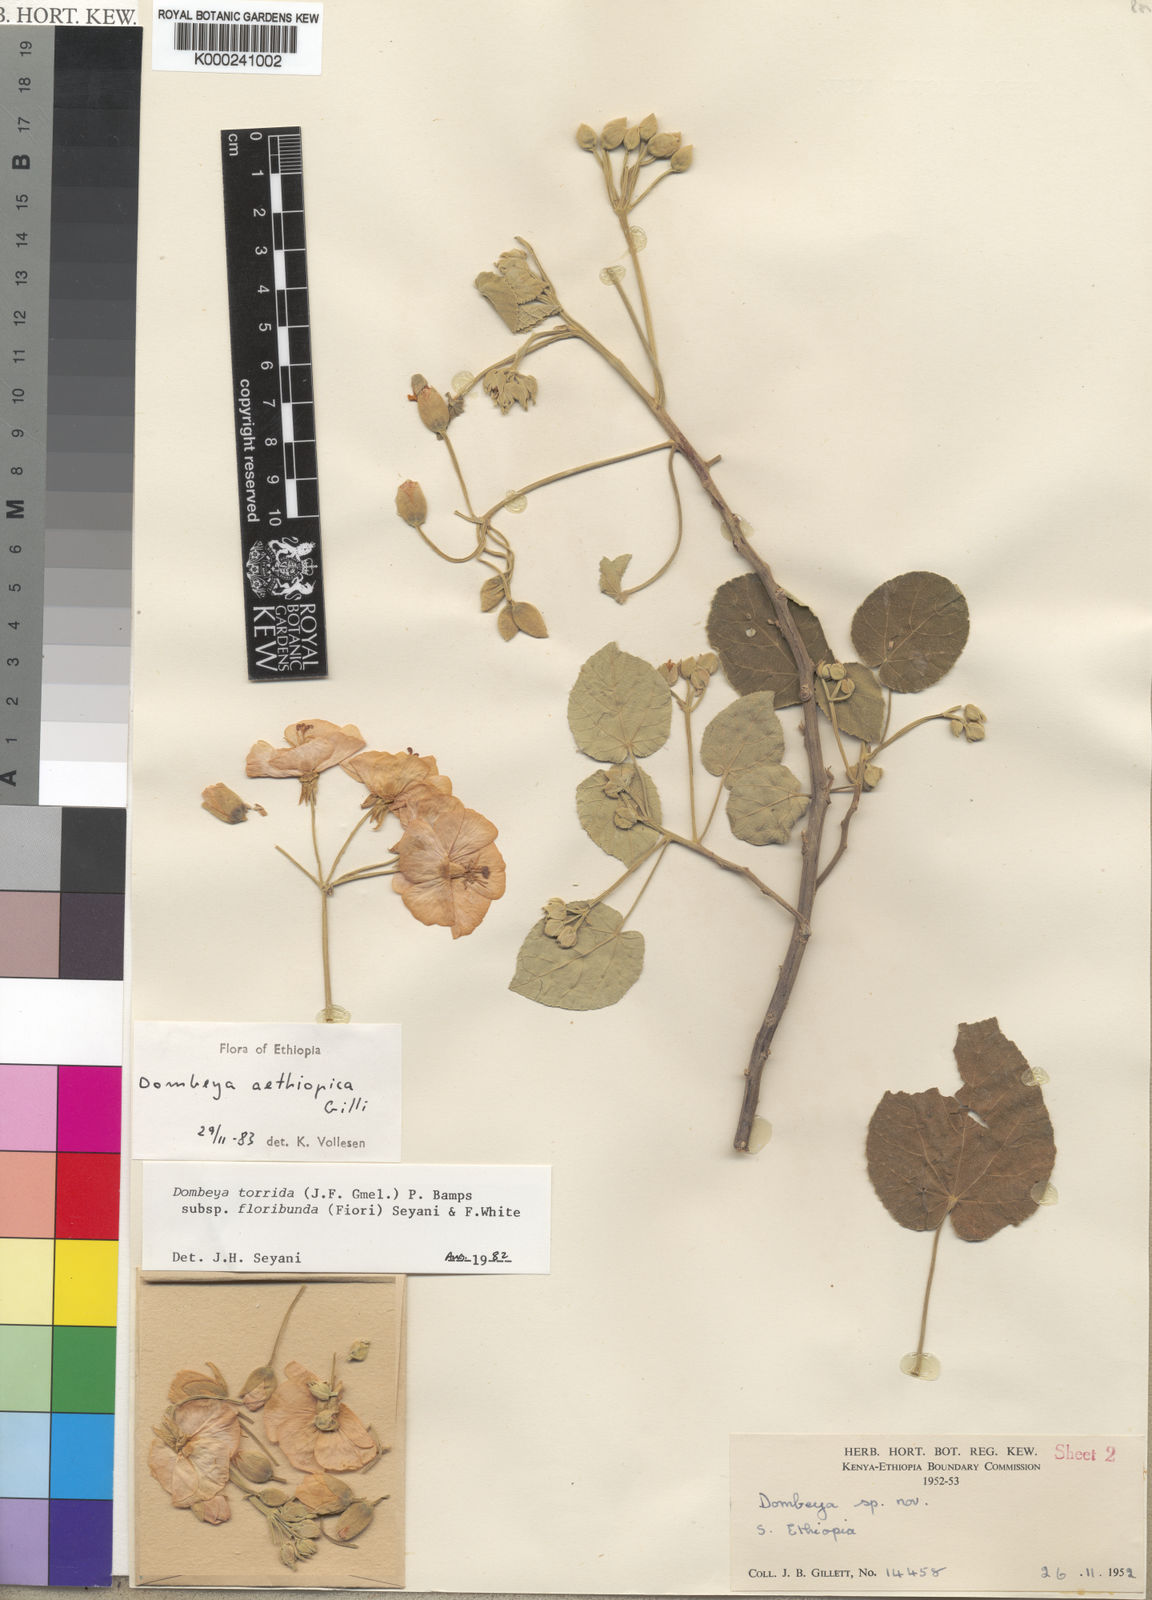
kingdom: Plantae
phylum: Tracheophyta
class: Magnoliopsida
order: Malvales
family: Malvaceae
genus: Dombeya
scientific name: Dombeya aethiopica
